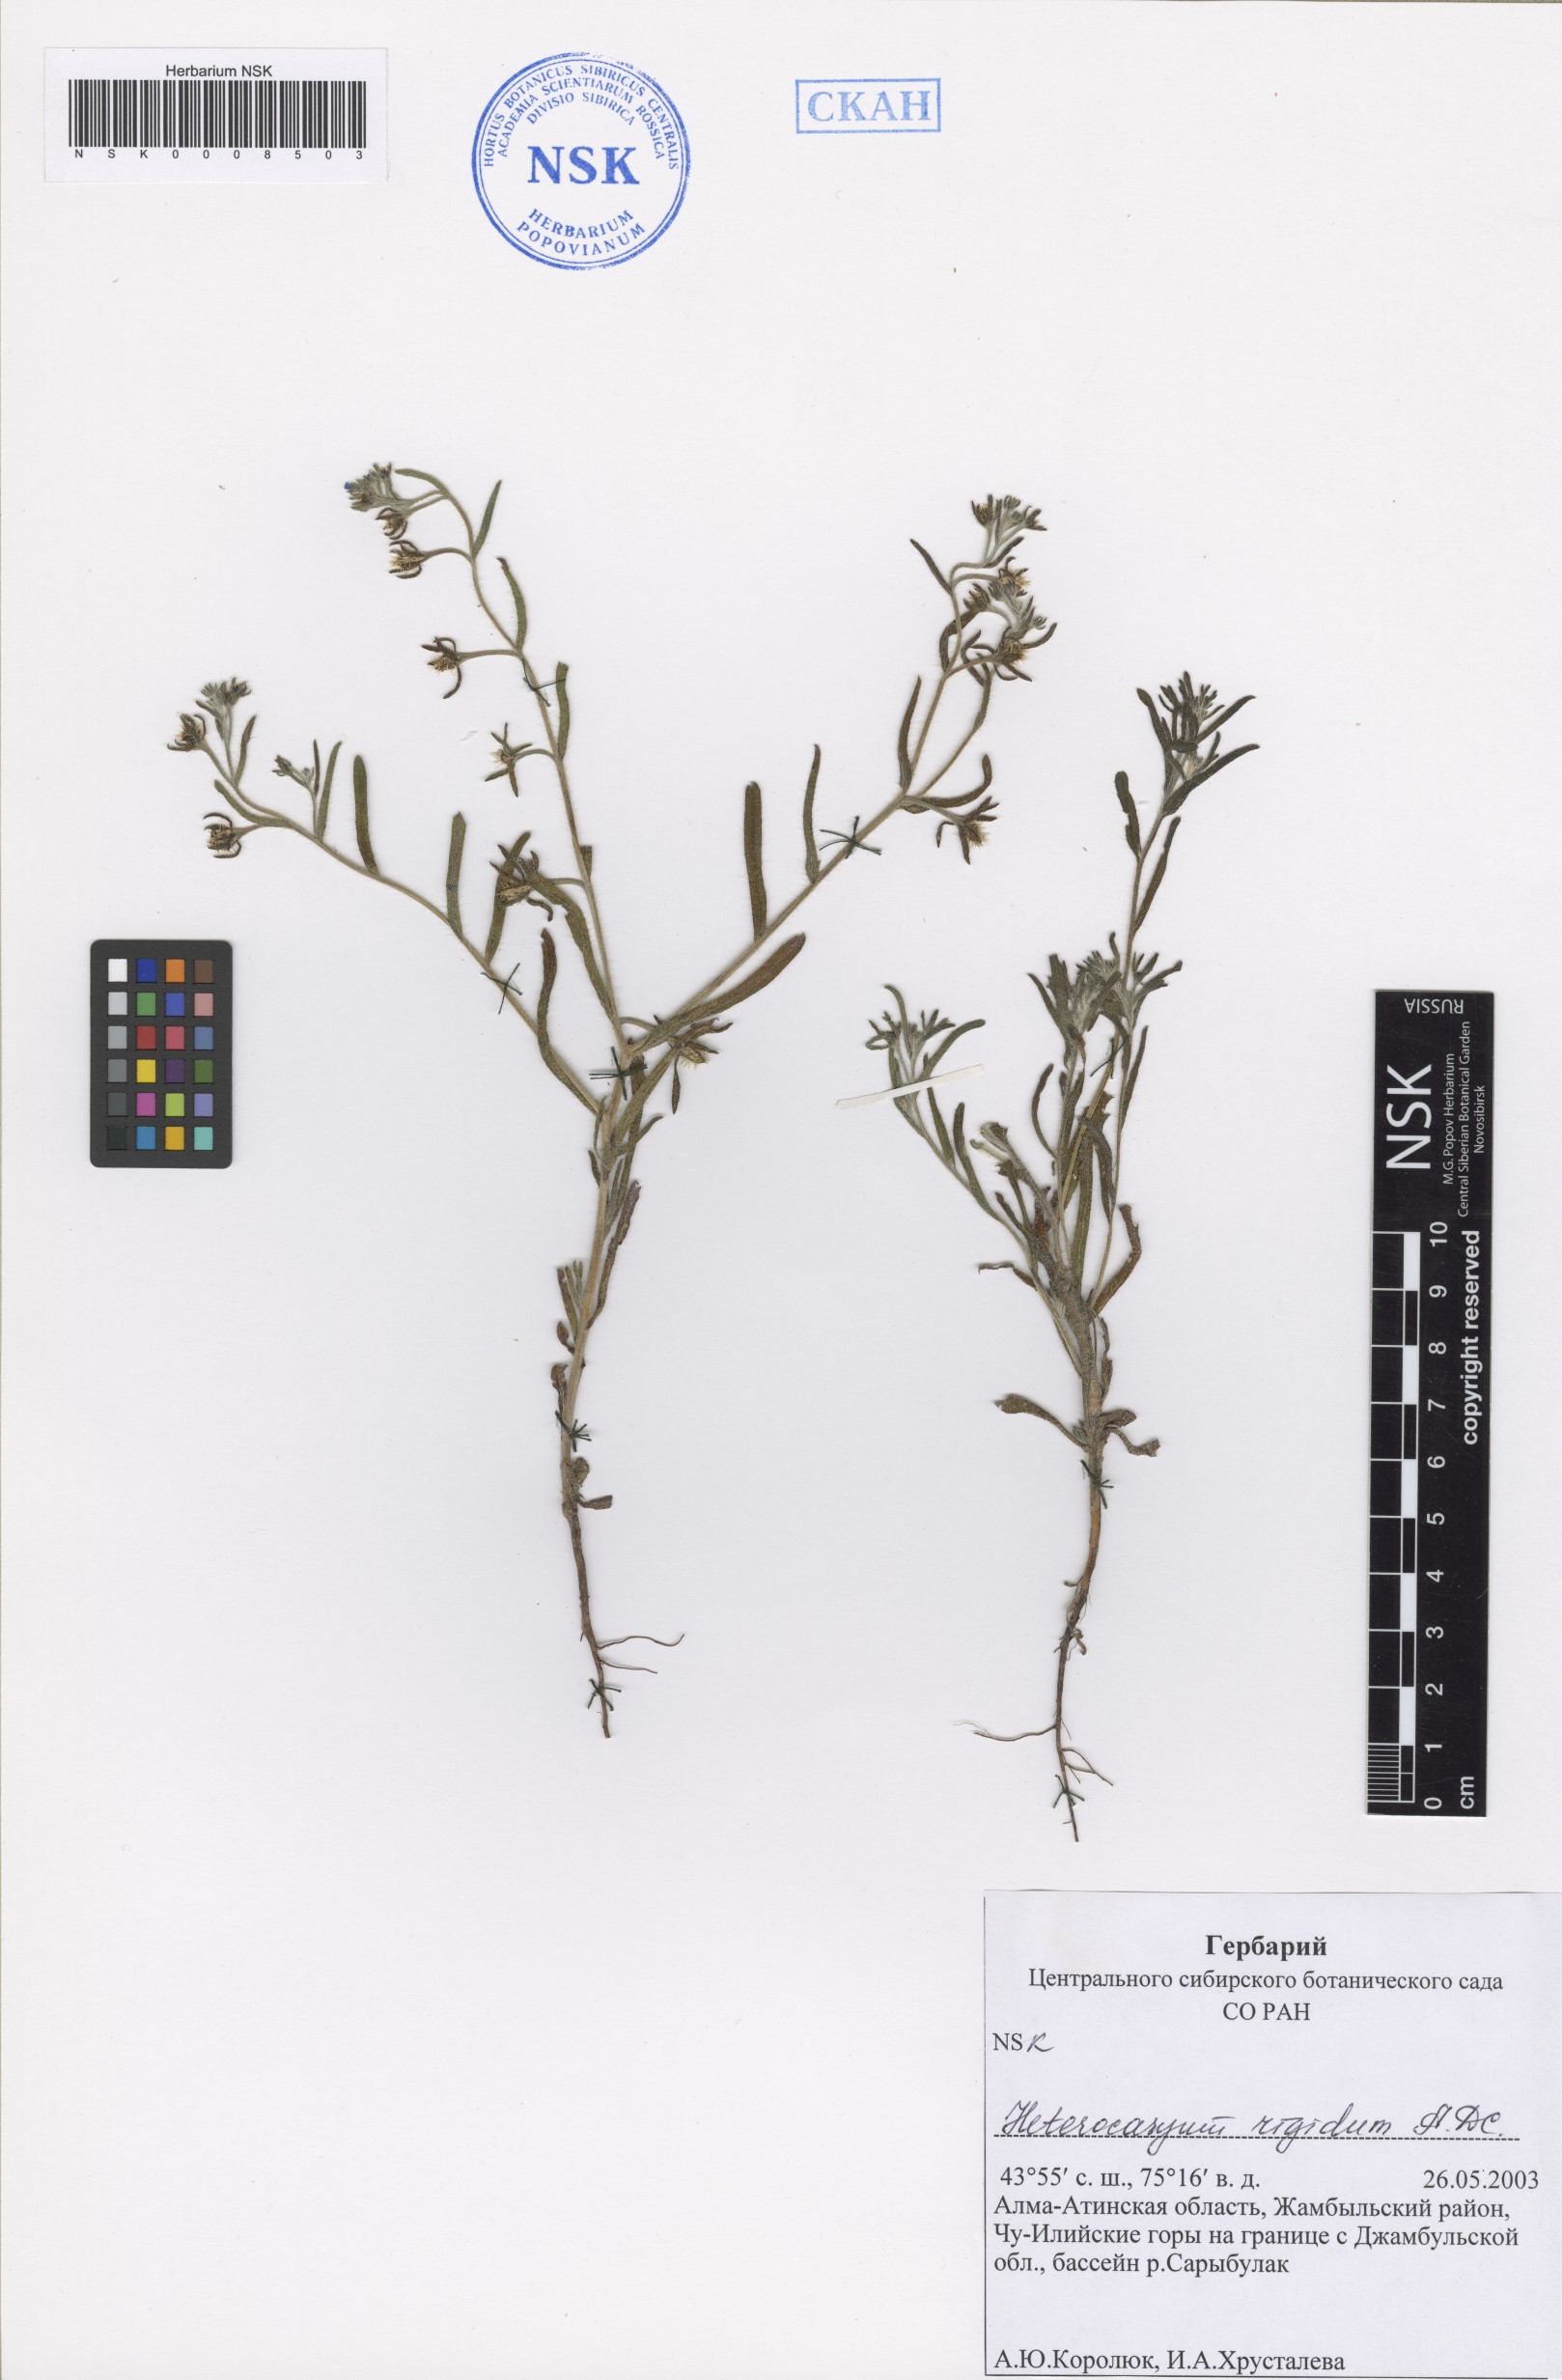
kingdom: Plantae
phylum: Tracheophyta
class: Magnoliopsida
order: Boraginales
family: Boraginaceae
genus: Pseudoheterocaryum
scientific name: Pseudoheterocaryum rigidum
